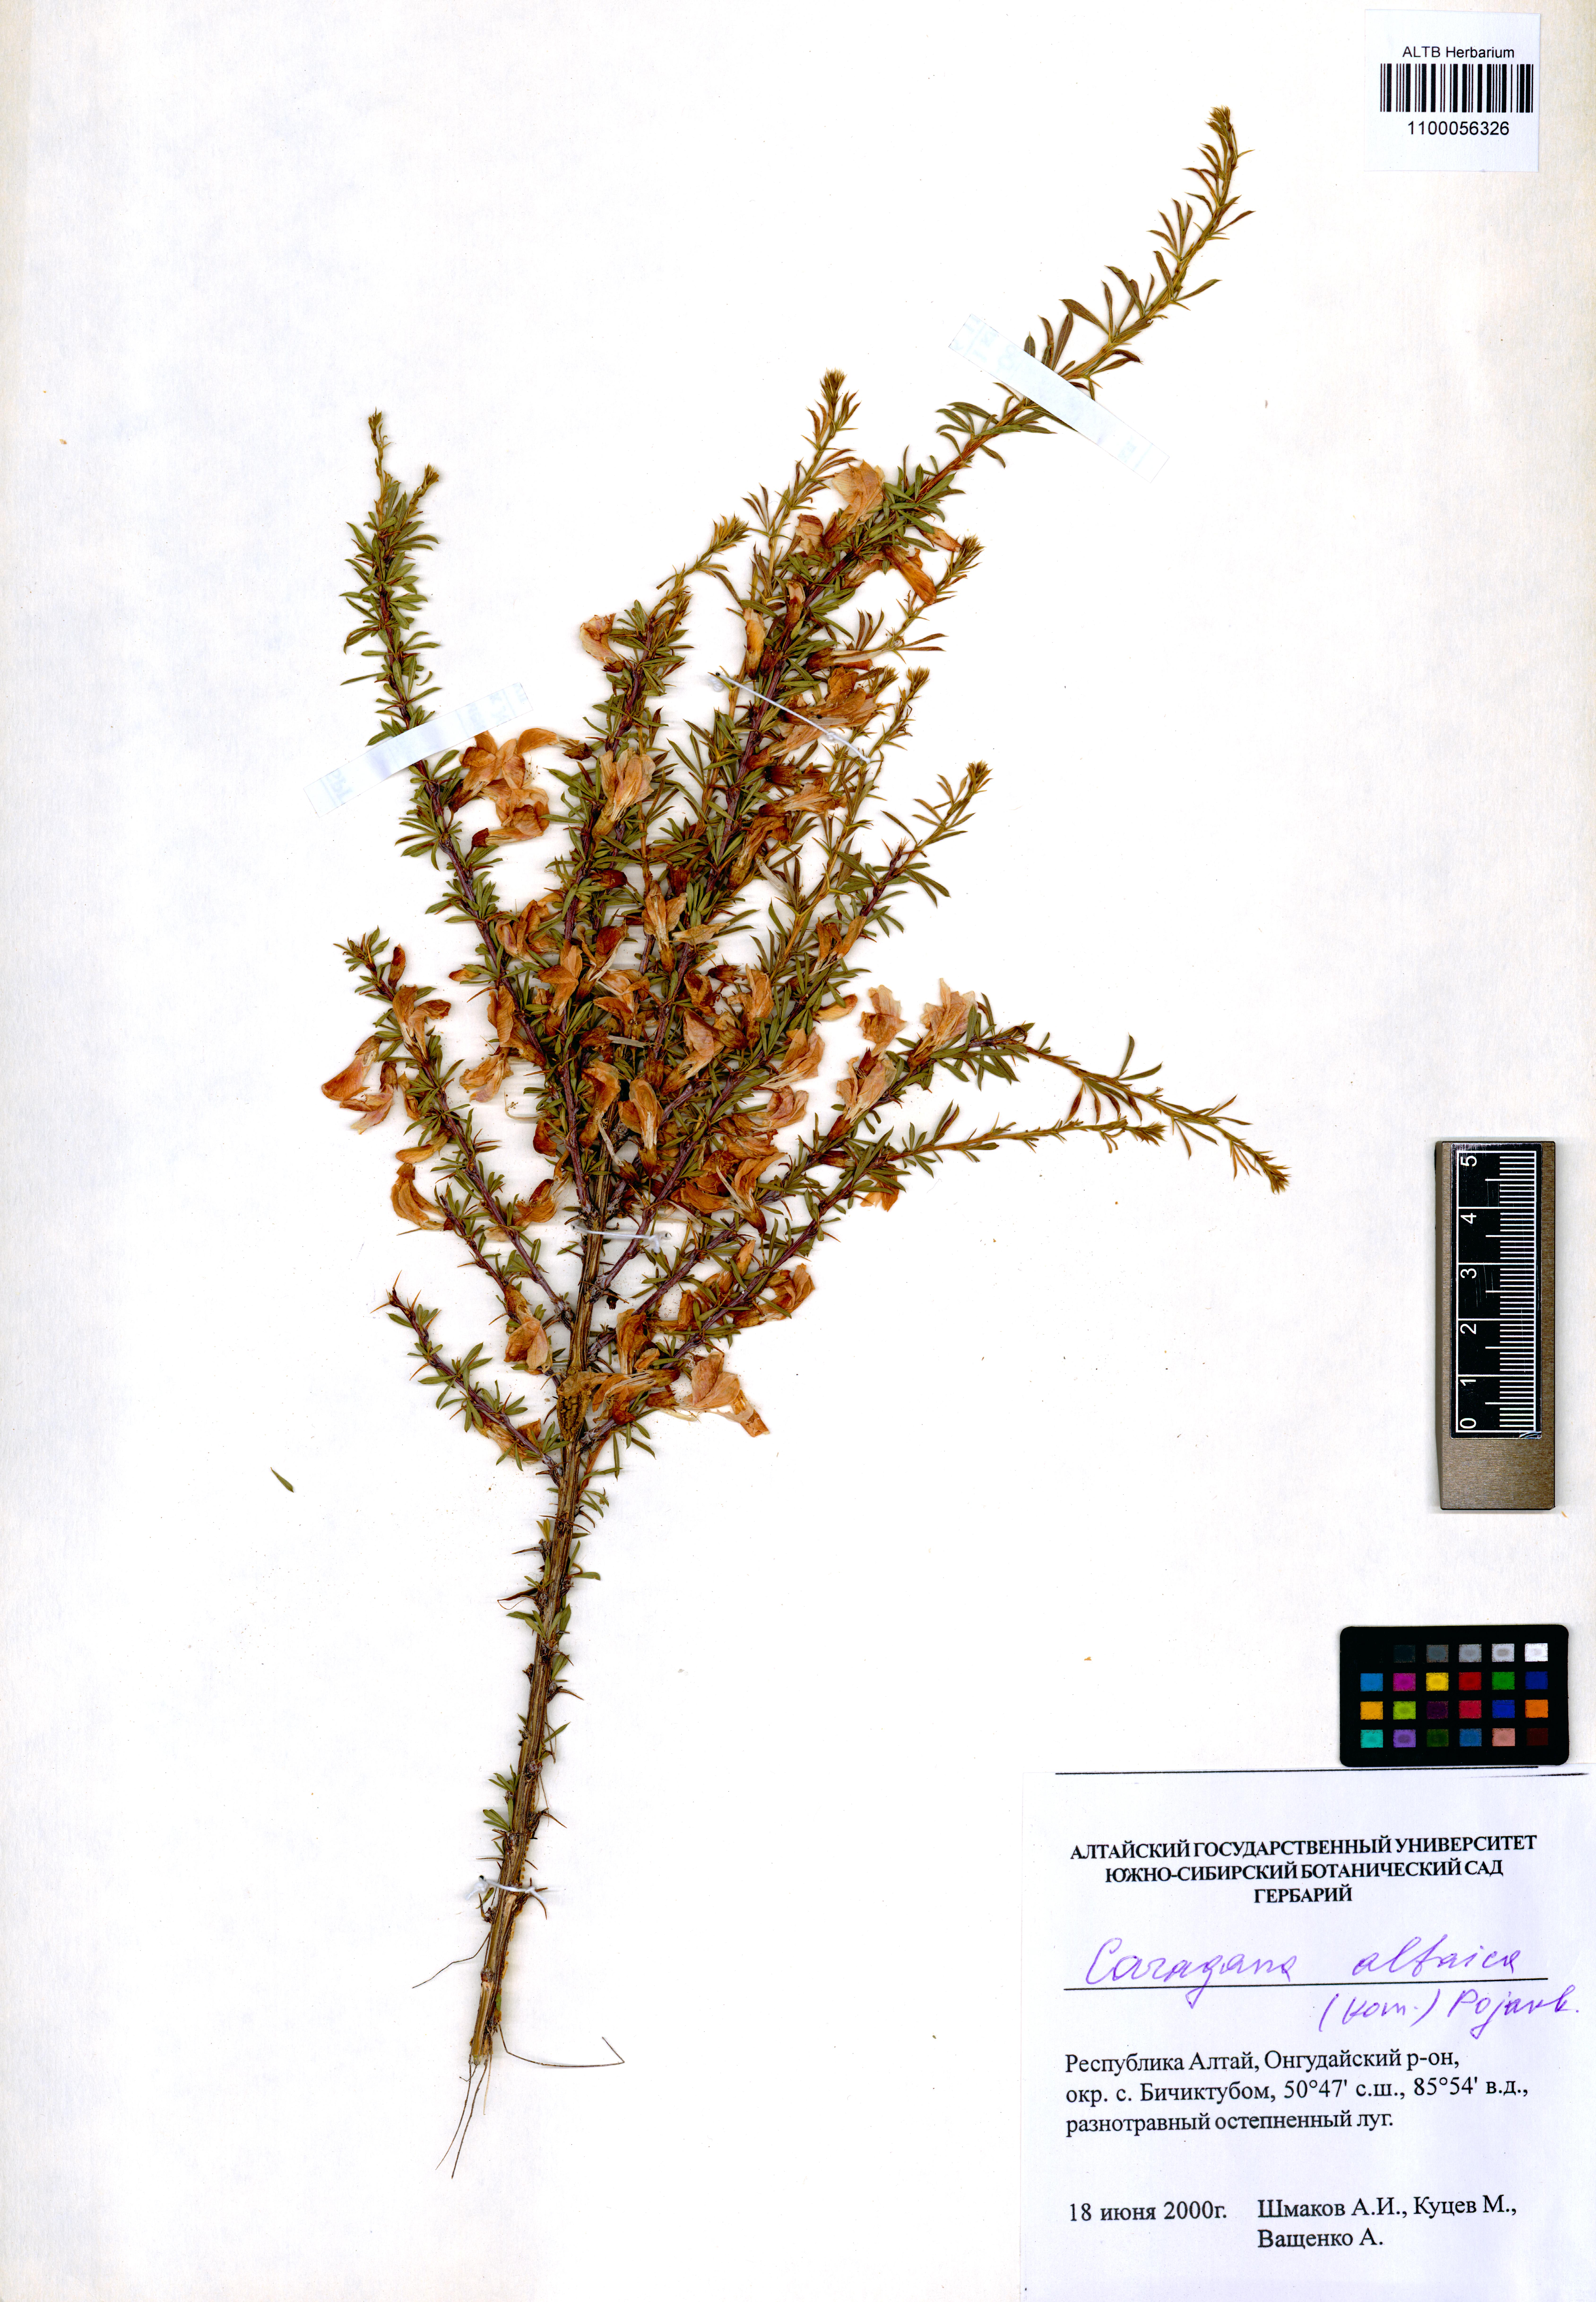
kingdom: Plantae
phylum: Tracheophyta
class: Magnoliopsida
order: Fabales
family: Fabaceae
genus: Caragana
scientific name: Caragana pygmaea
